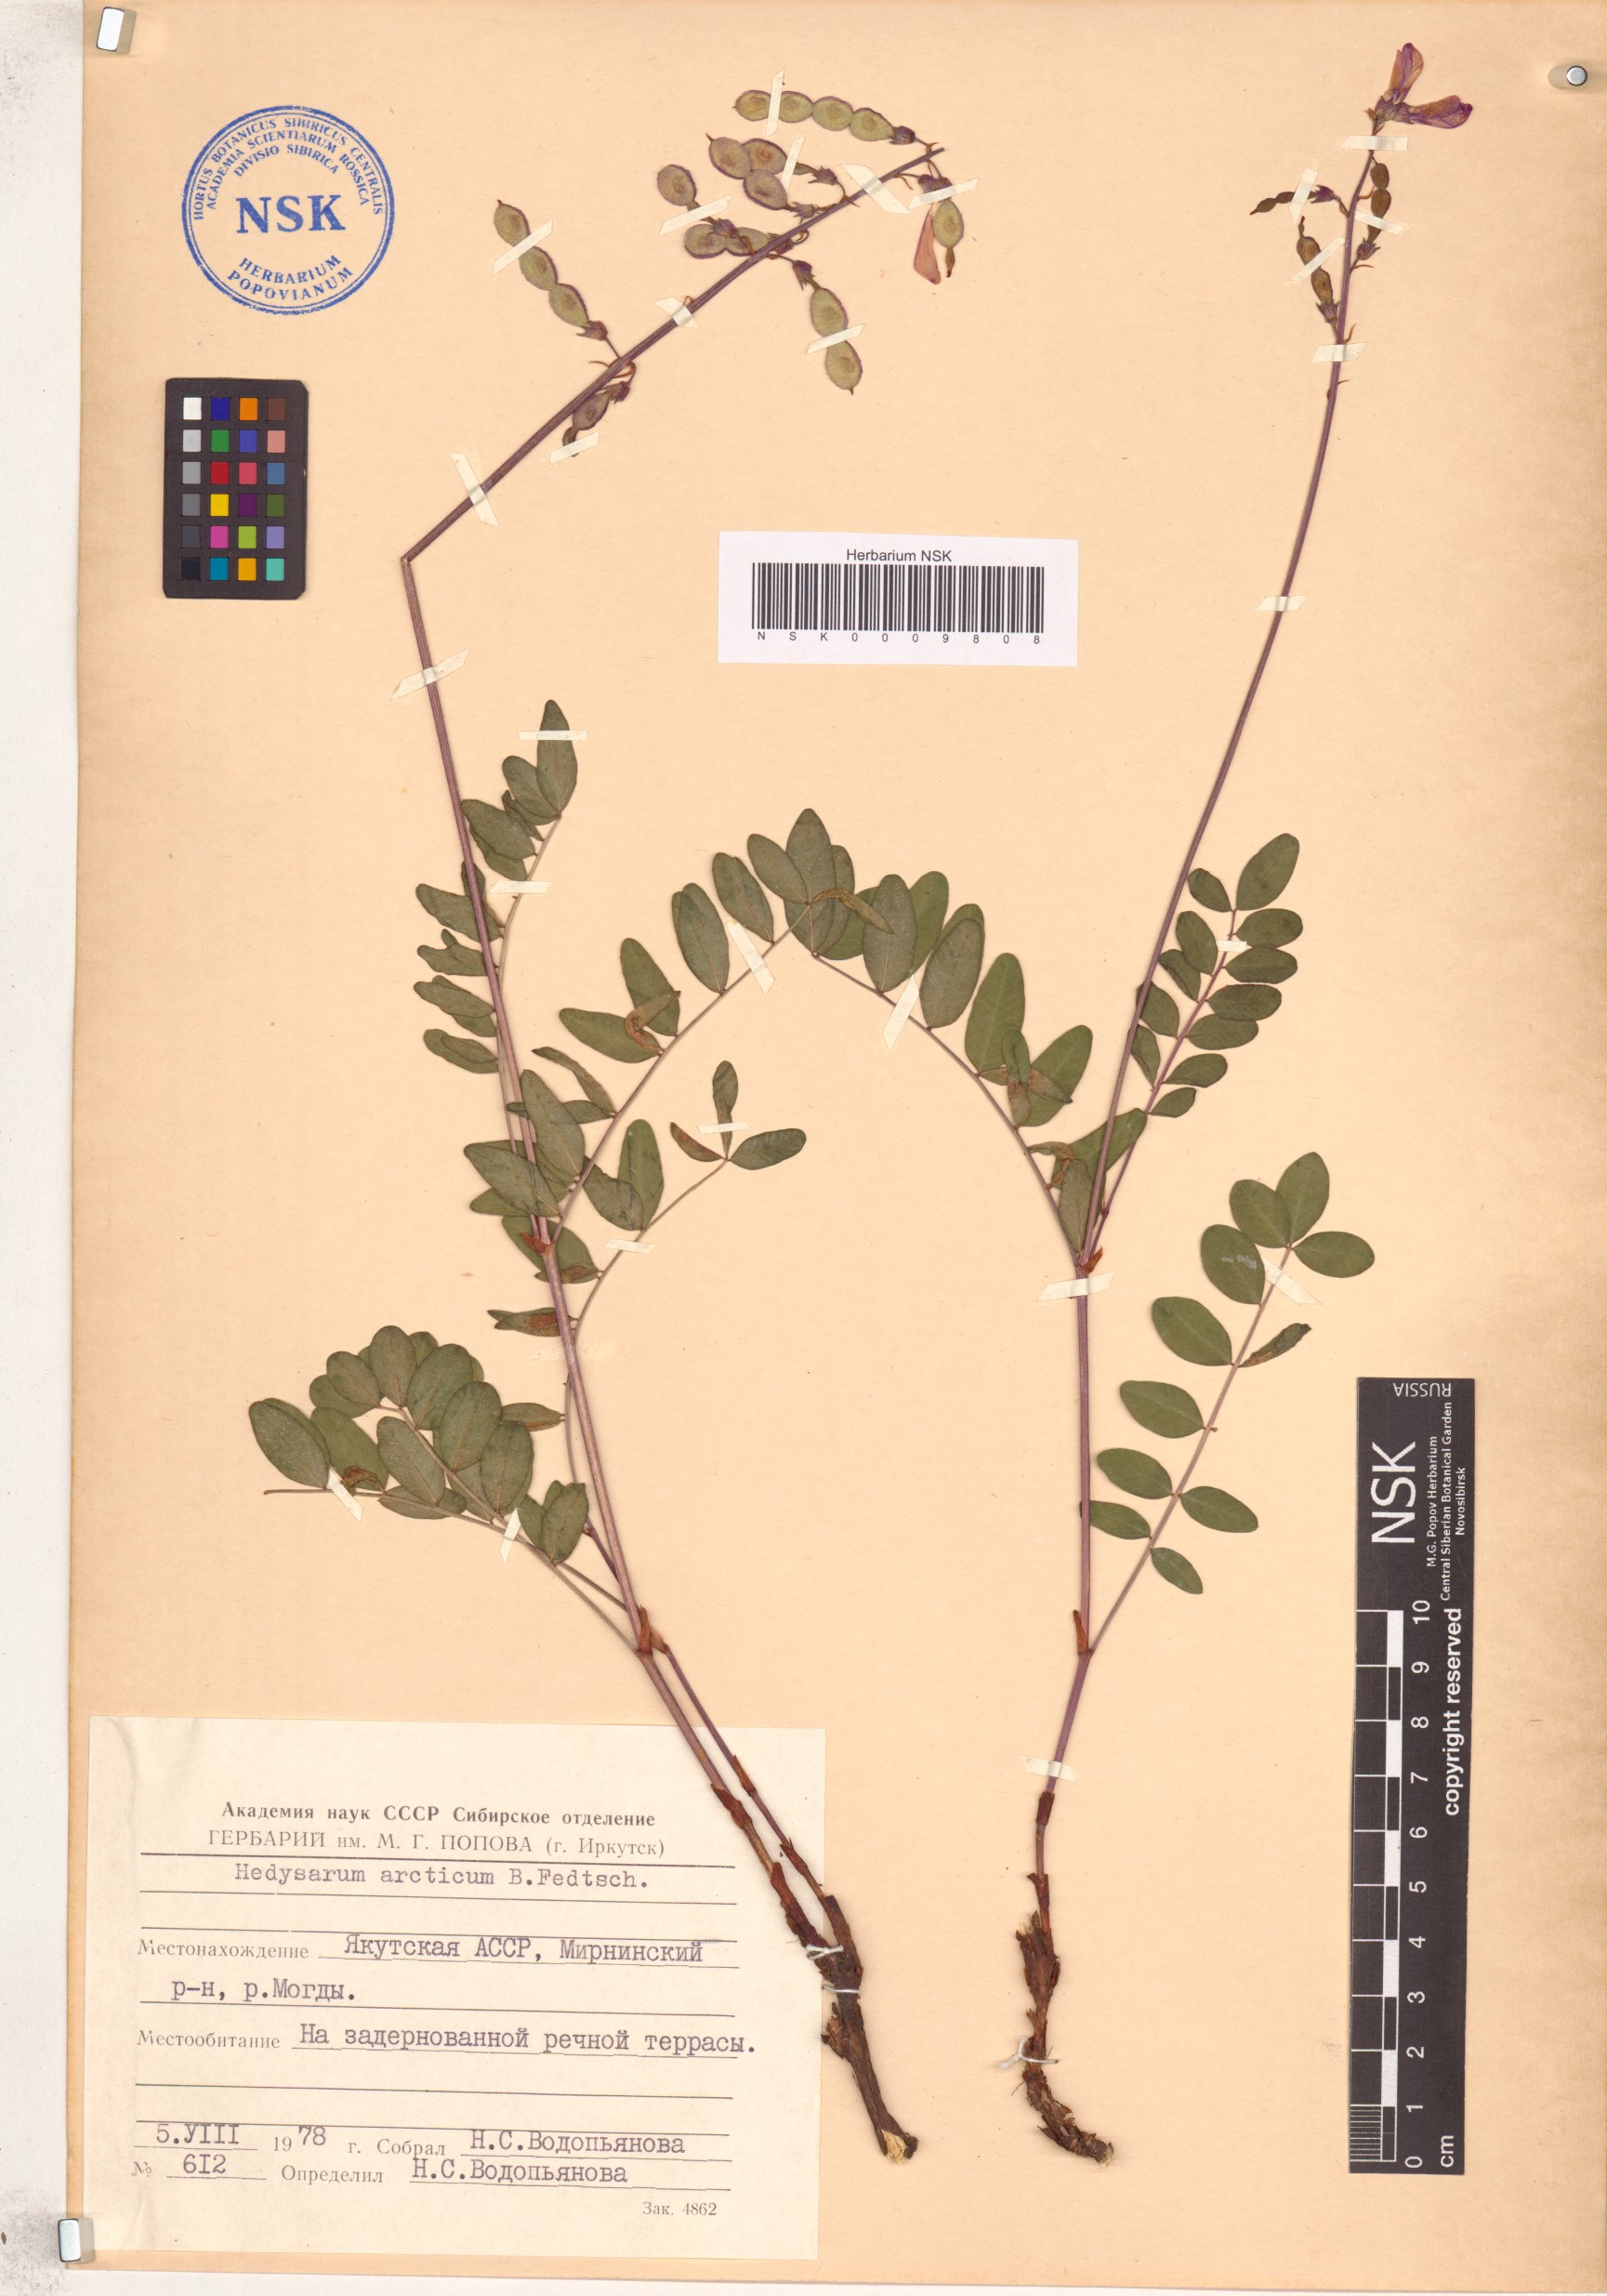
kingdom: Plantae
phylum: Tracheophyta
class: Magnoliopsida
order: Fabales
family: Fabaceae
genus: Hedysarum
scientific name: Hedysarum hedysaroides
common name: Alpine french-honeysuckle
